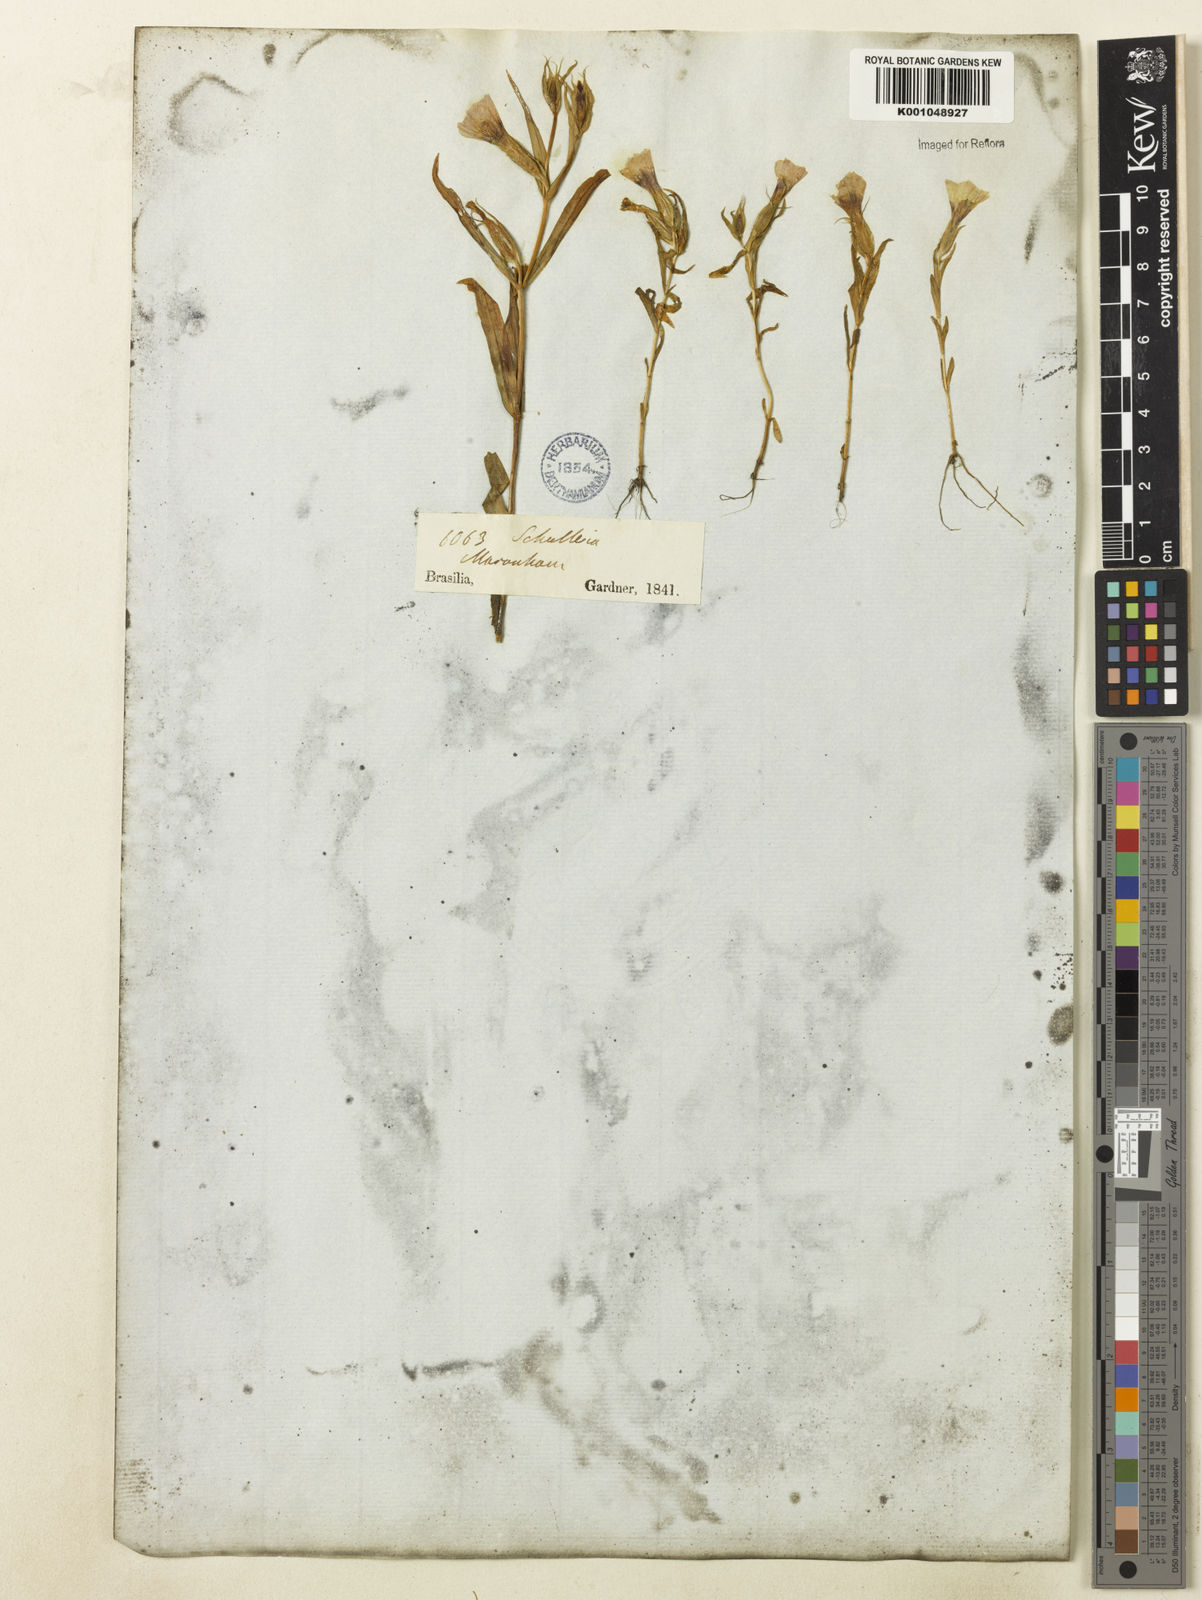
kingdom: Plantae
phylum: Tracheophyta
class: Magnoliopsida
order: Gentianales
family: Gentianaceae
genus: Schultesia
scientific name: Schultesia
